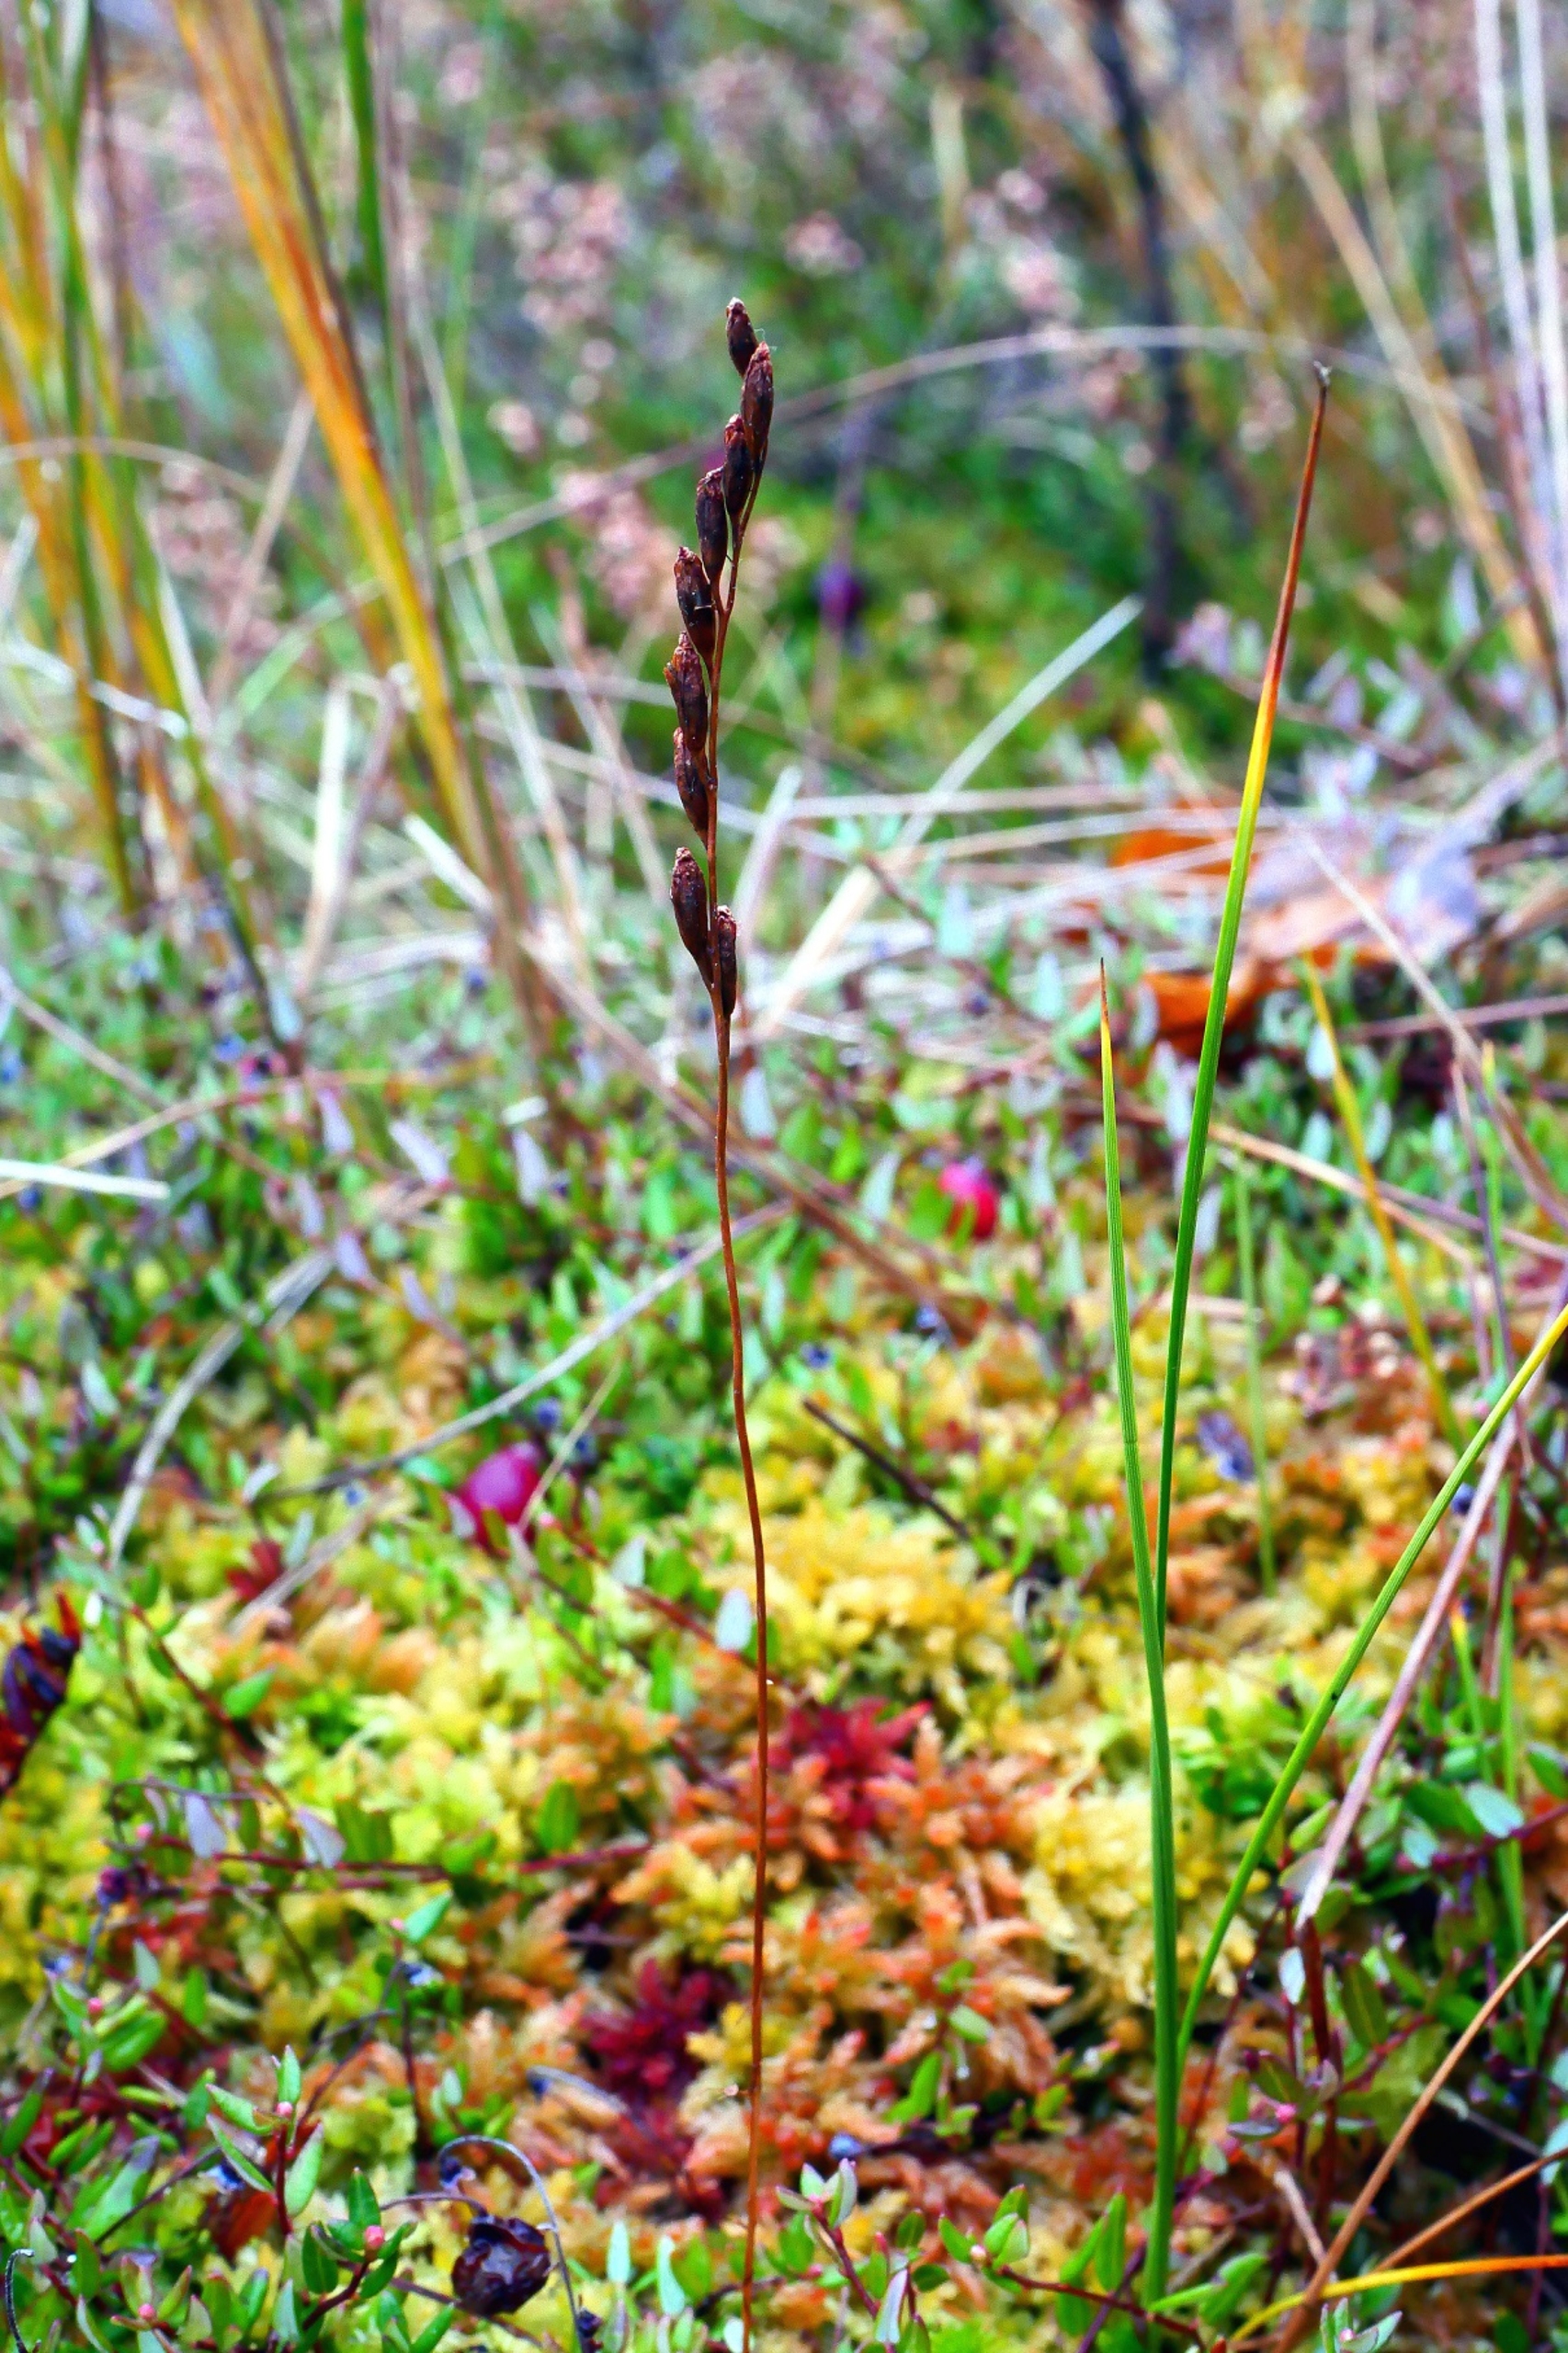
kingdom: Plantae
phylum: Tracheophyta
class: Magnoliopsida
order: Caryophyllales
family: Droseraceae
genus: Drosera
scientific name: Drosera rotundifolia
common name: Rundbladet soldug
